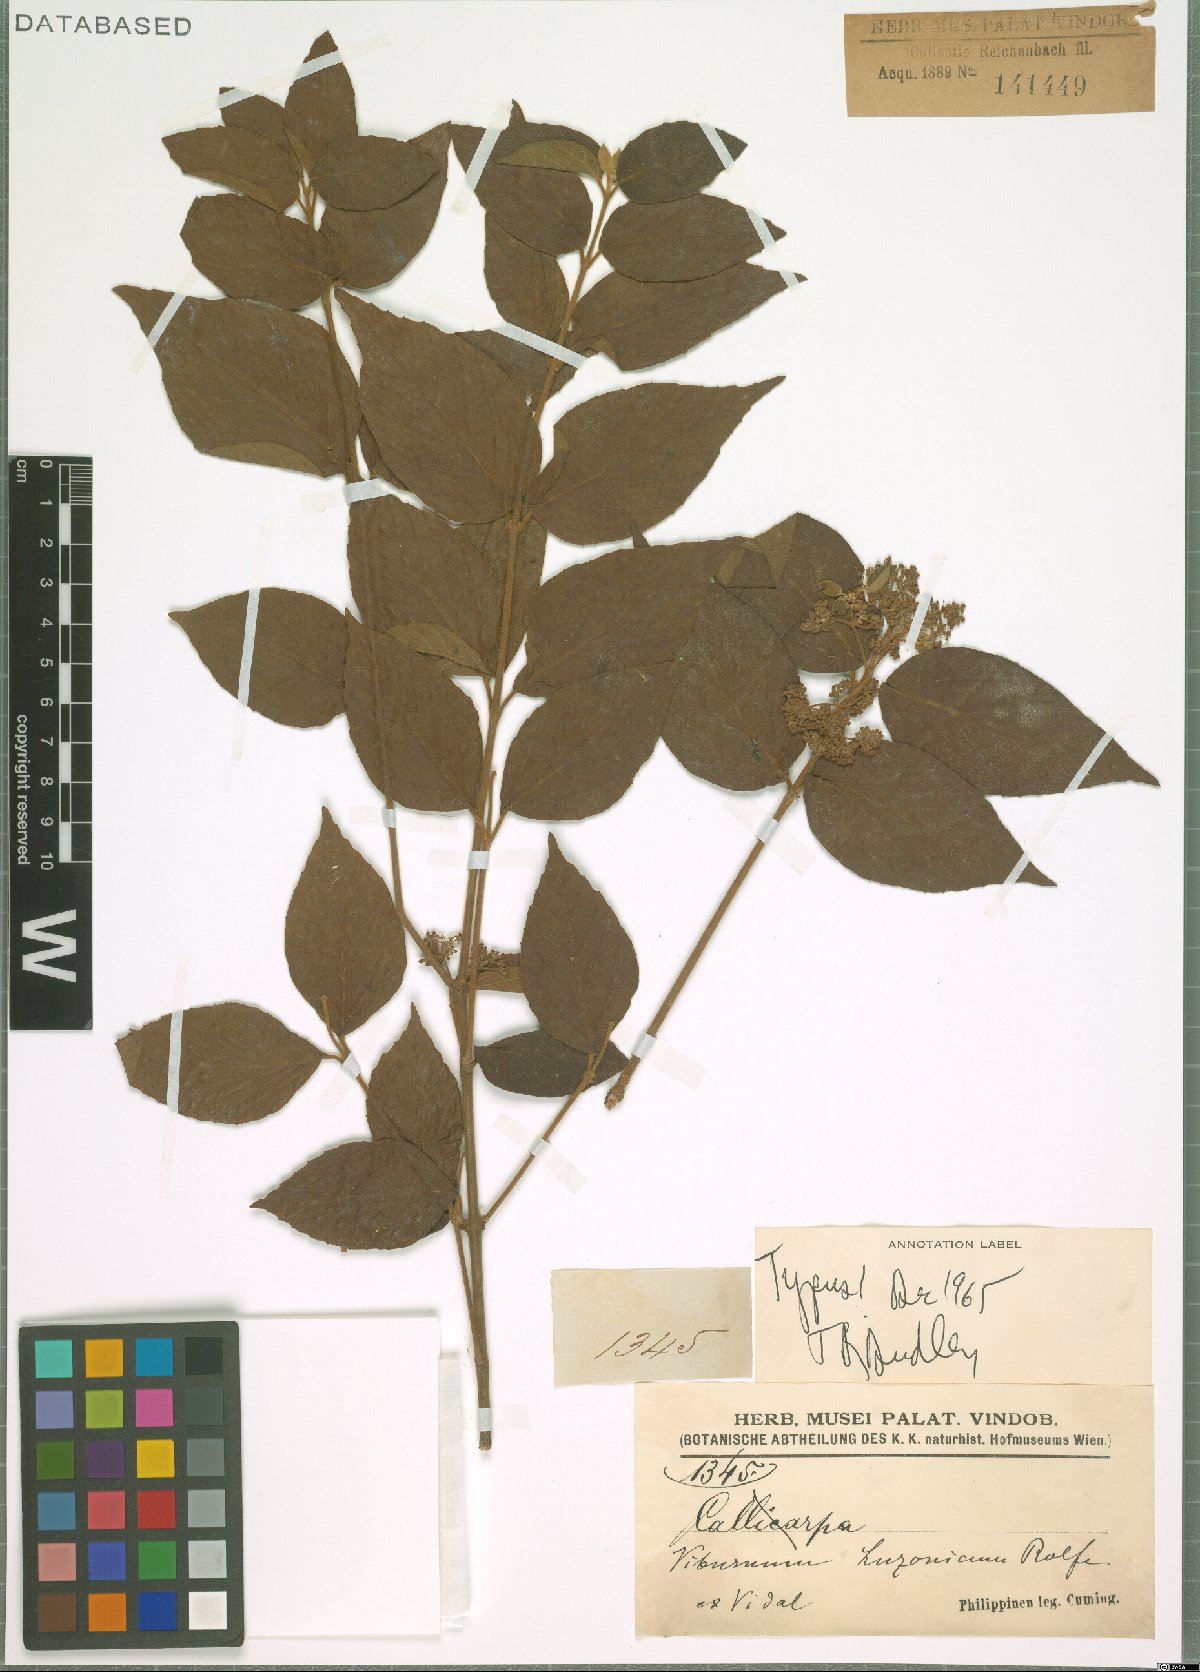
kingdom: Plantae
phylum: Tracheophyta
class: Magnoliopsida
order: Dipsacales
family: Viburnaceae
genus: Viburnum
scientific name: Viburnum luzonicum
